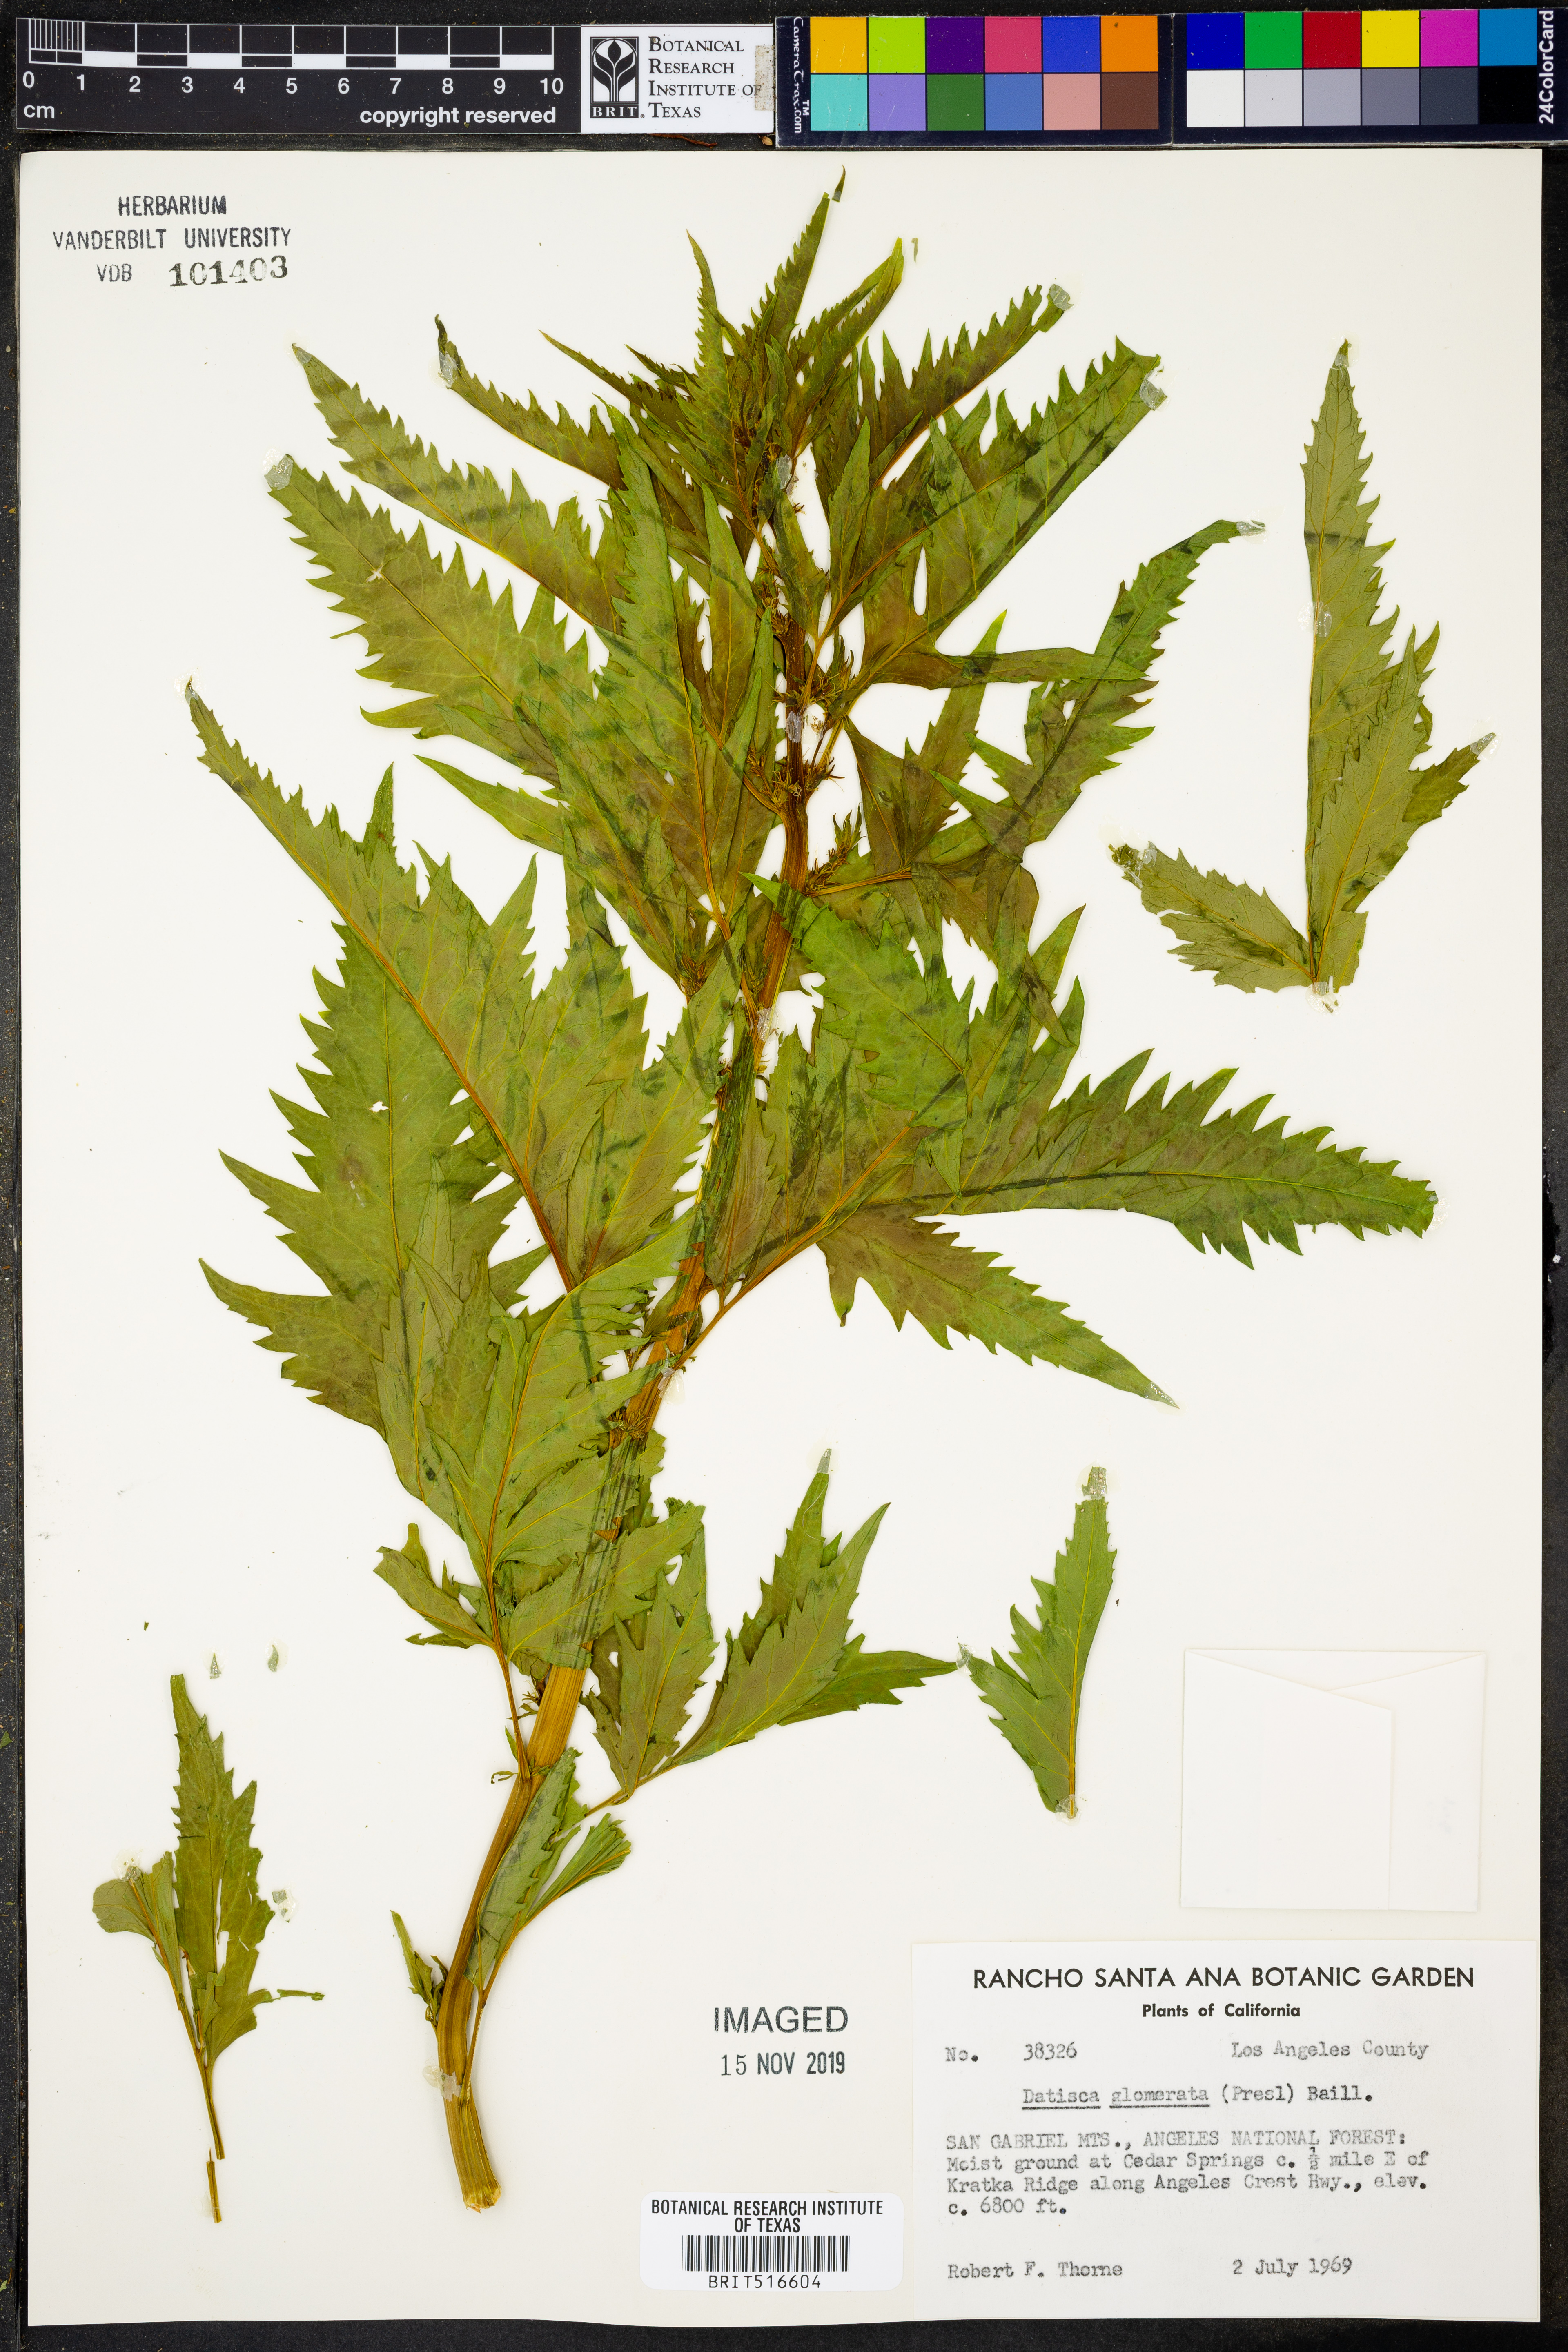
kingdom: Plantae
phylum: Tracheophyta
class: Magnoliopsida
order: Cucurbitales
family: Datiscaceae
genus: Datisca
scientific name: Datisca glomerata
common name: Durango-root
